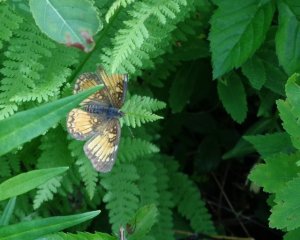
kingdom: Animalia
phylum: Arthropoda
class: Insecta
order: Lepidoptera
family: Nymphalidae
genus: Chlosyne
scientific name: Chlosyne harrisii
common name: Harris's Checkerspot
